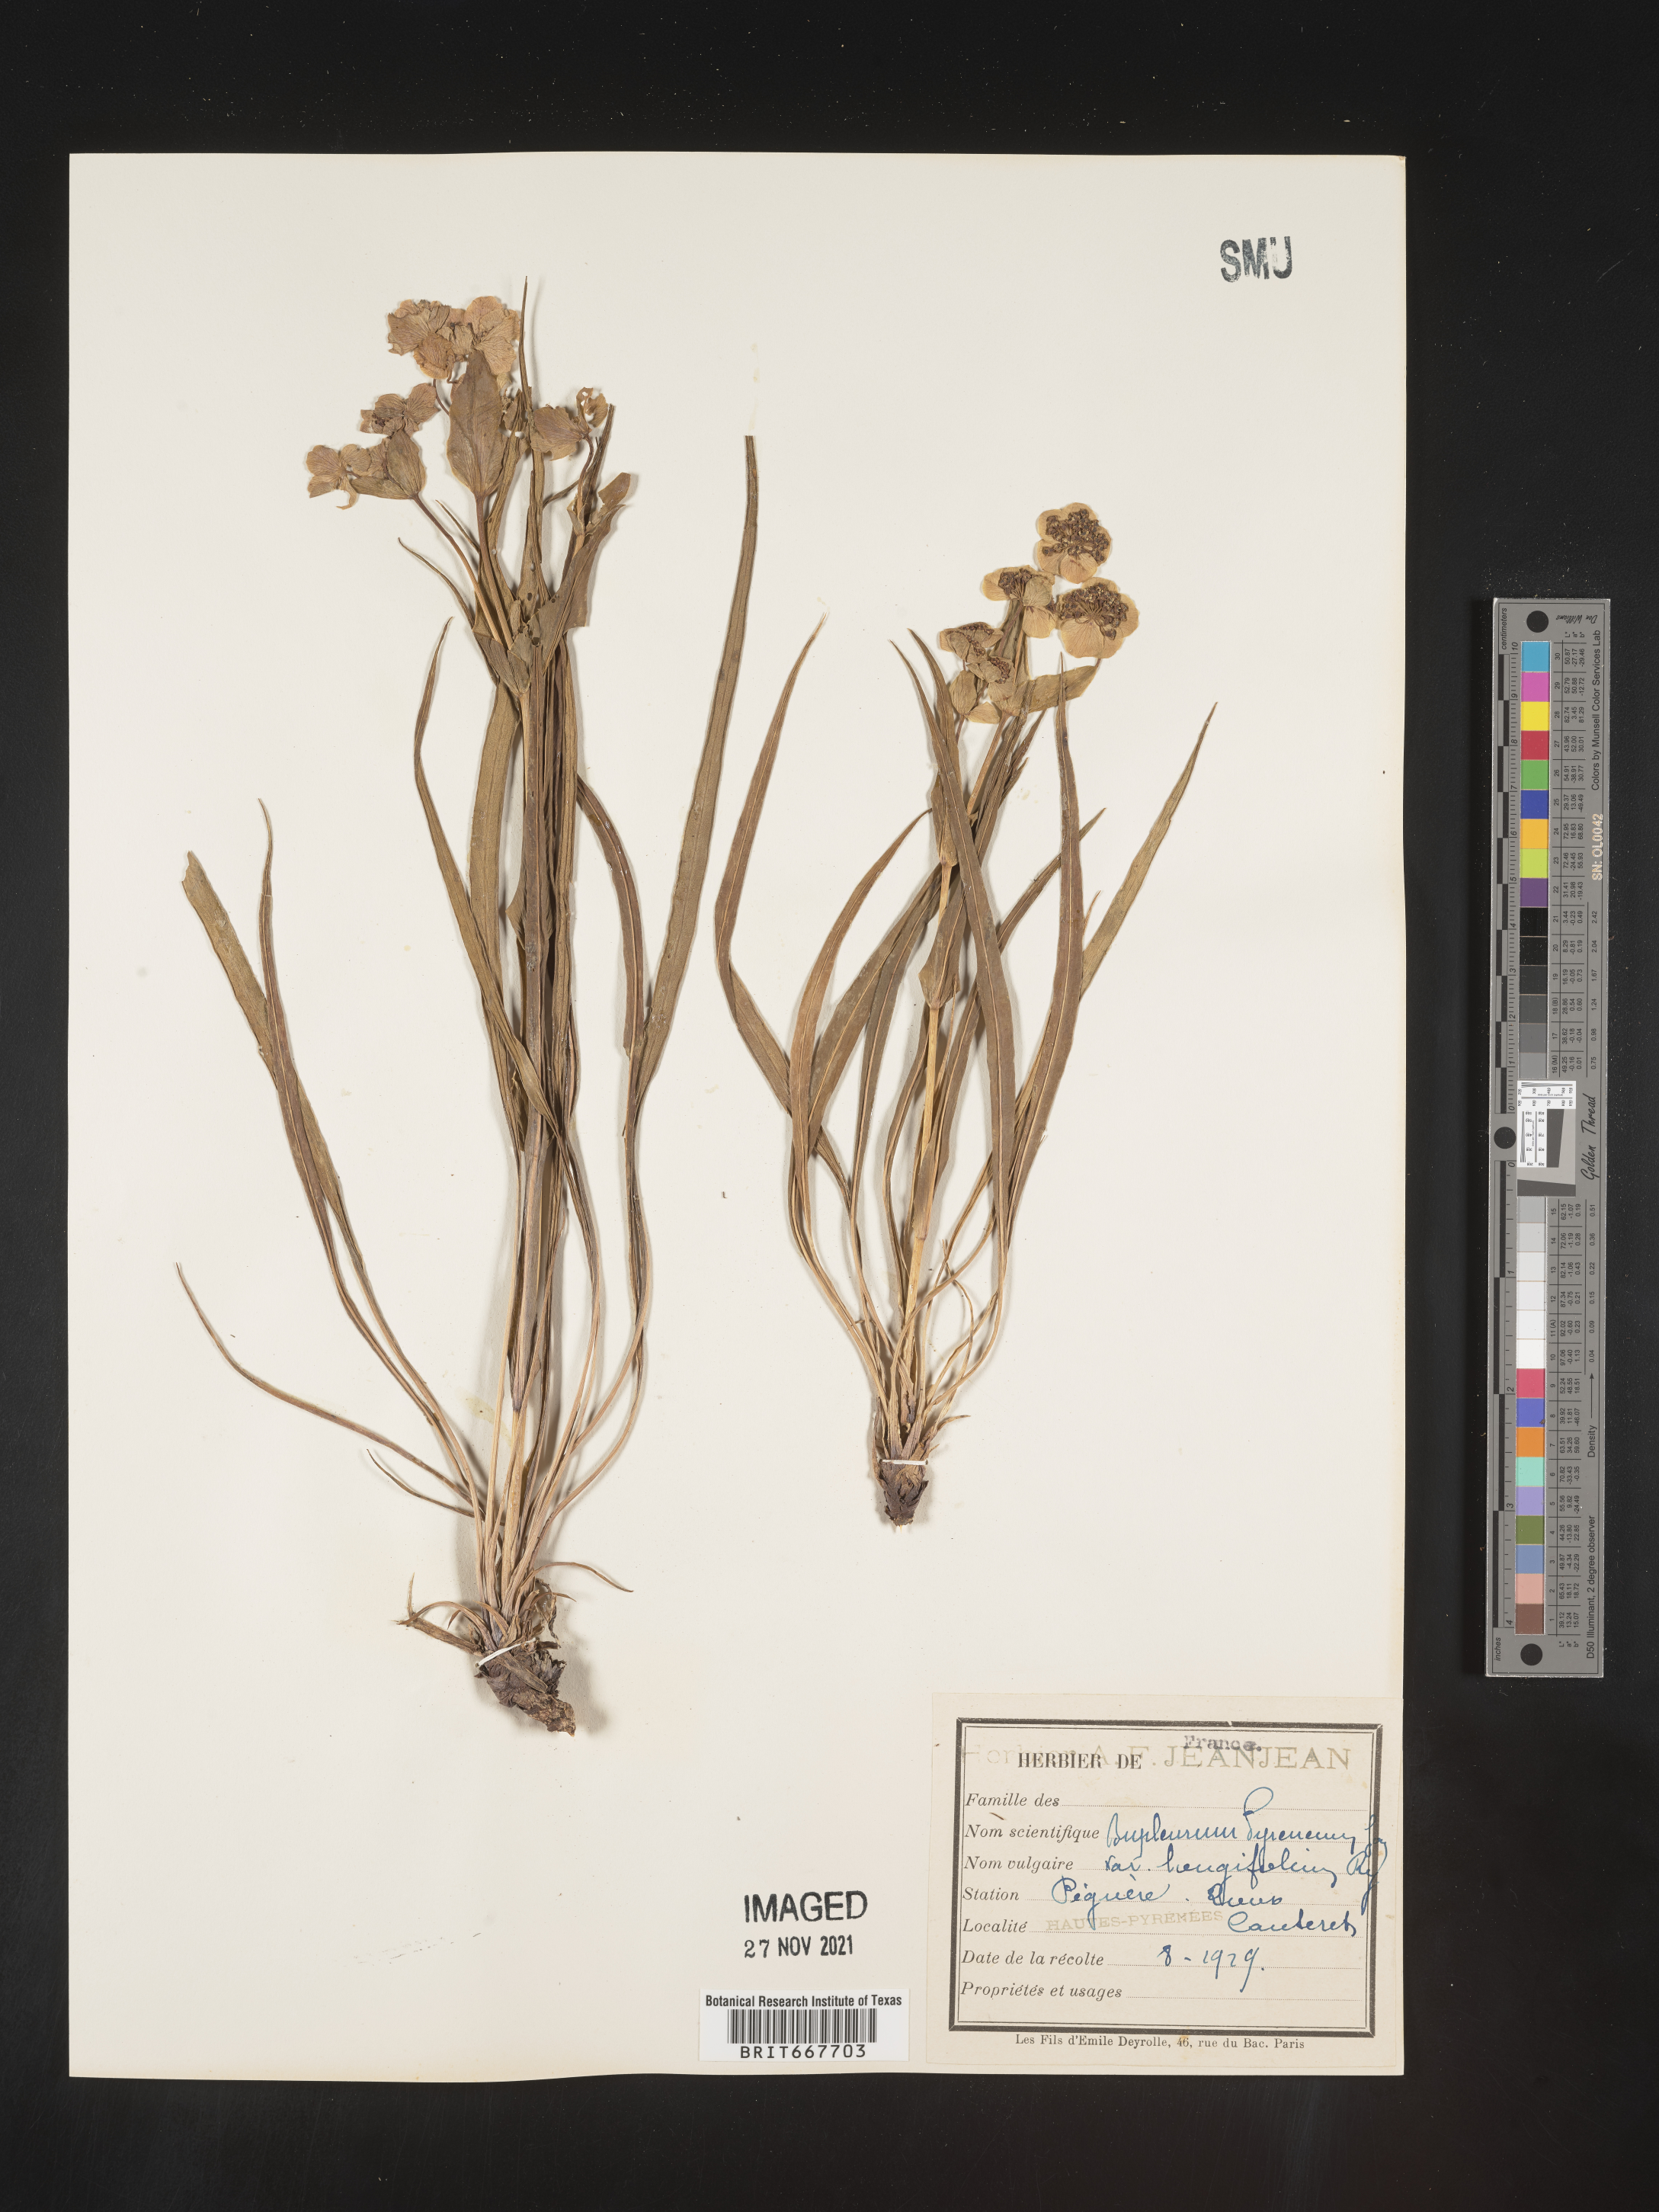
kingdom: Plantae
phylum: Tracheophyta
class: Magnoliopsida
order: Apiales
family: Apiaceae
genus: Bupleurum
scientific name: Bupleurum
